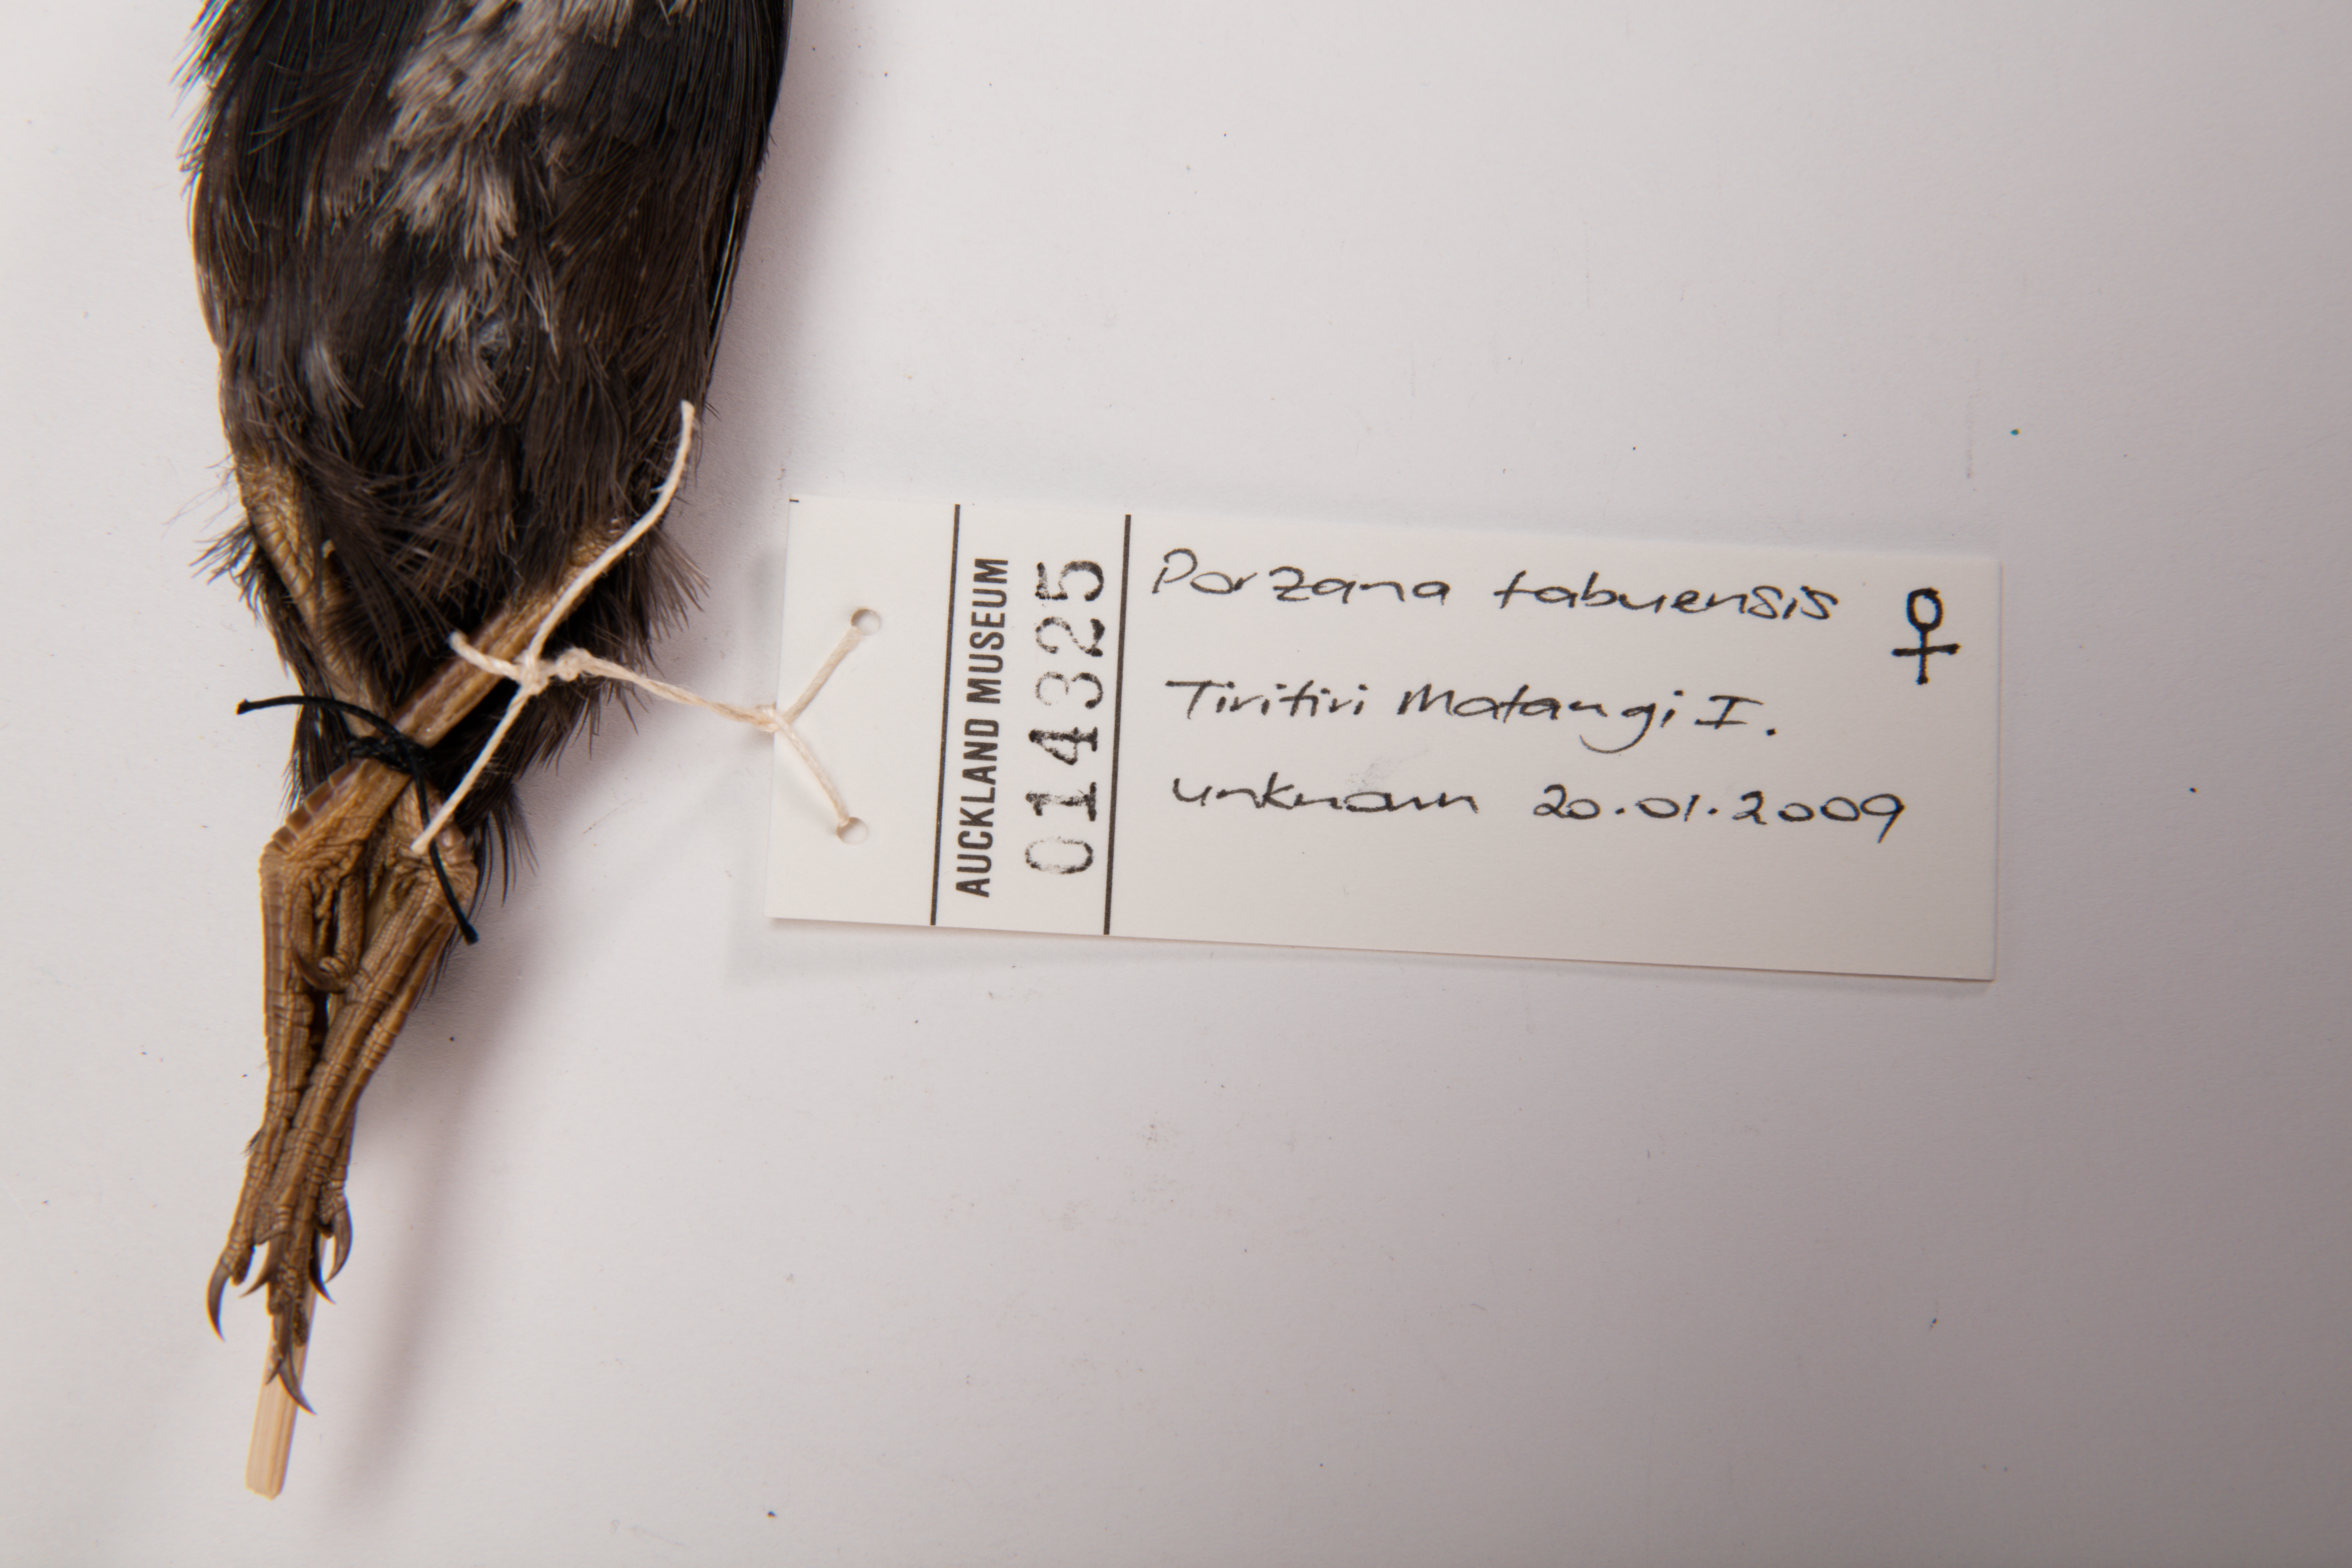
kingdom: Animalia
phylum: Chordata
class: Aves
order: Gruiformes
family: Rallidae
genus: Porzana
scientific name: Porzana tabuensis
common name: Spotless crake
